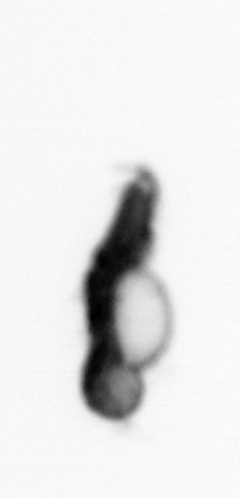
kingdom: Animalia
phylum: Annelida
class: Polychaeta
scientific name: Polychaeta
